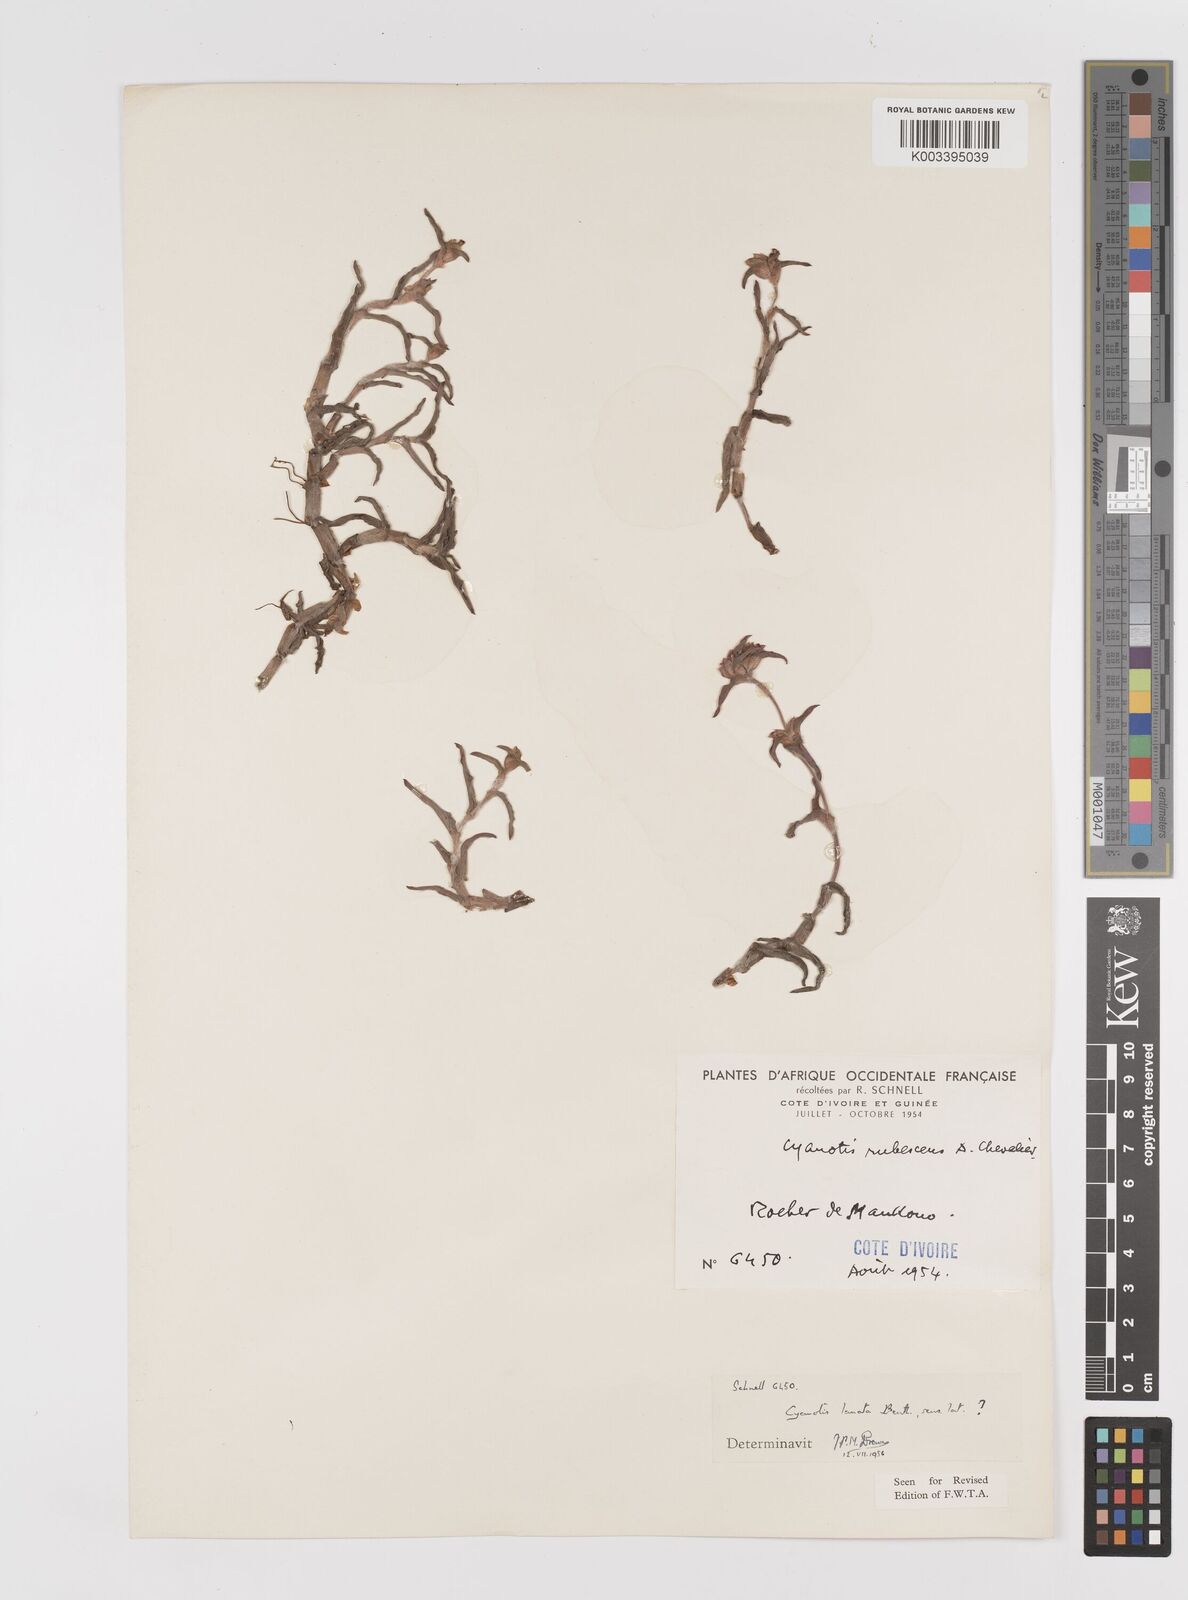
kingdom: Plantae
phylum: Tracheophyta
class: Liliopsida
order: Commelinales
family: Commelinaceae
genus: Cyanotis
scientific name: Cyanotis lanata
